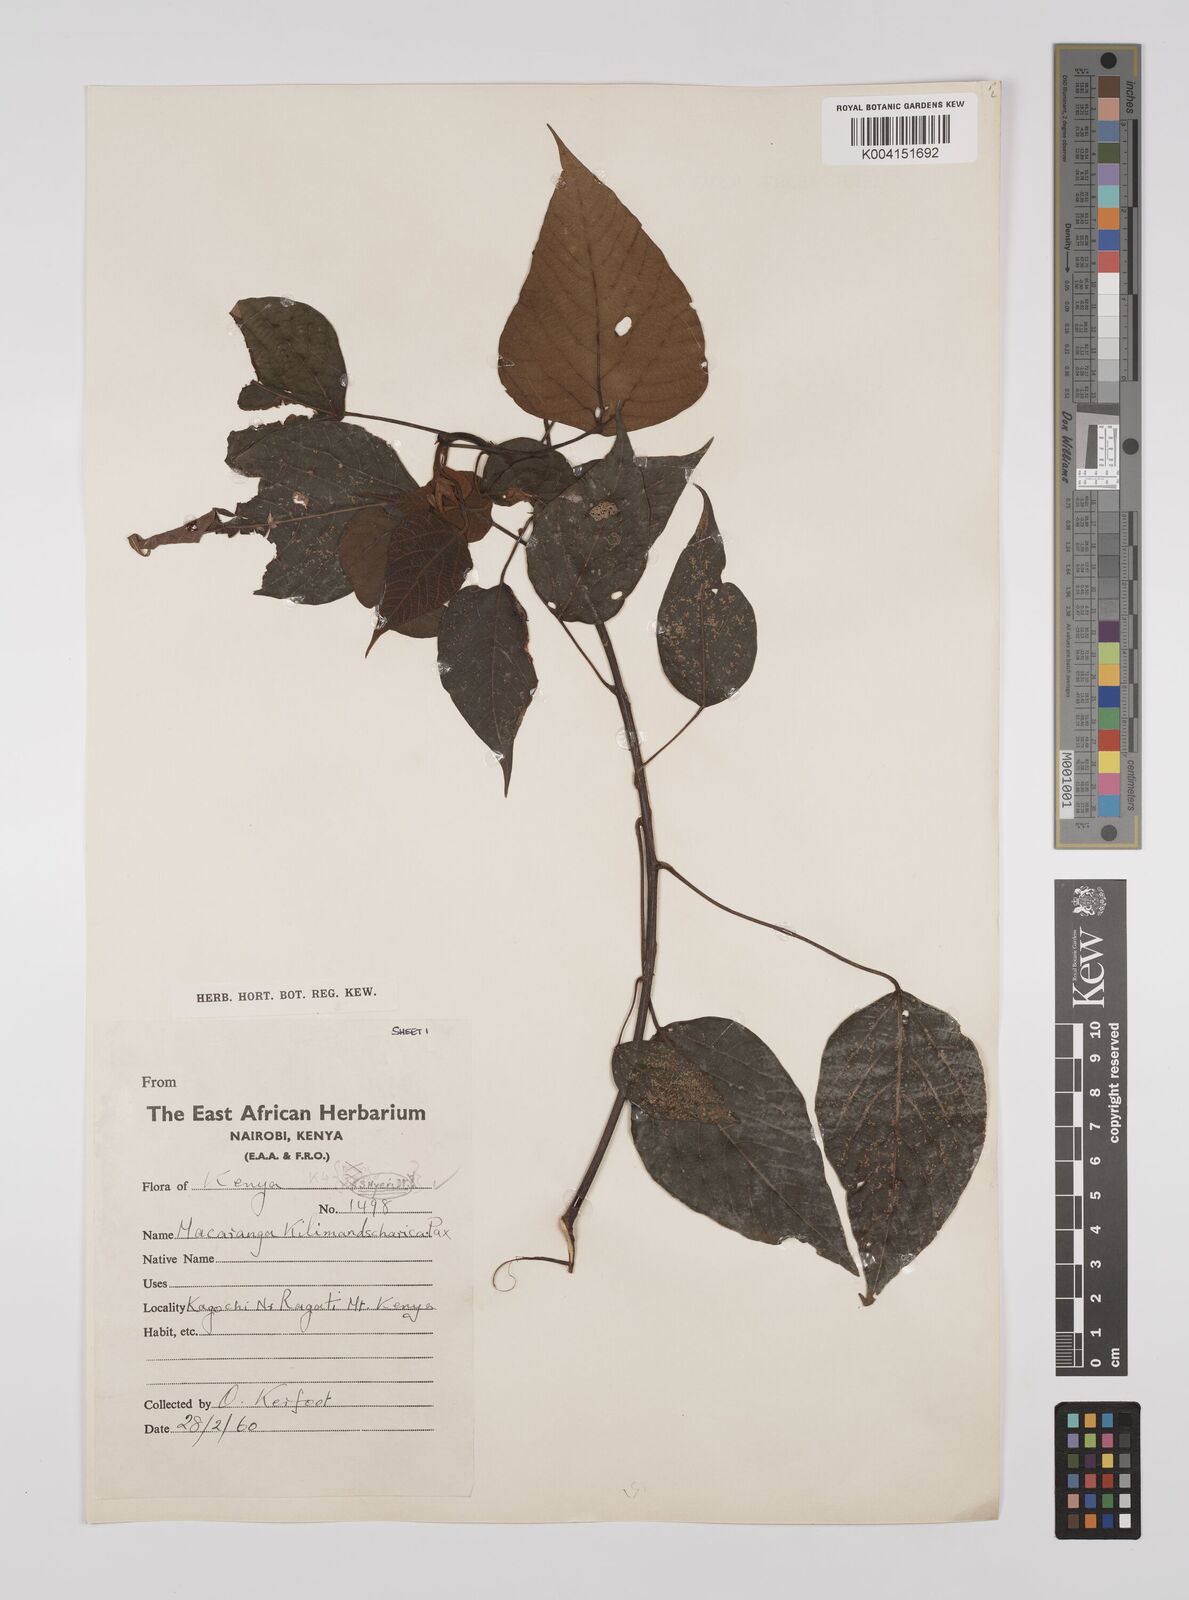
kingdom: Plantae
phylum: Tracheophyta
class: Magnoliopsida
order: Malpighiales
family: Euphorbiaceae
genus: Macaranga
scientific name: Macaranga kilimandscharica
